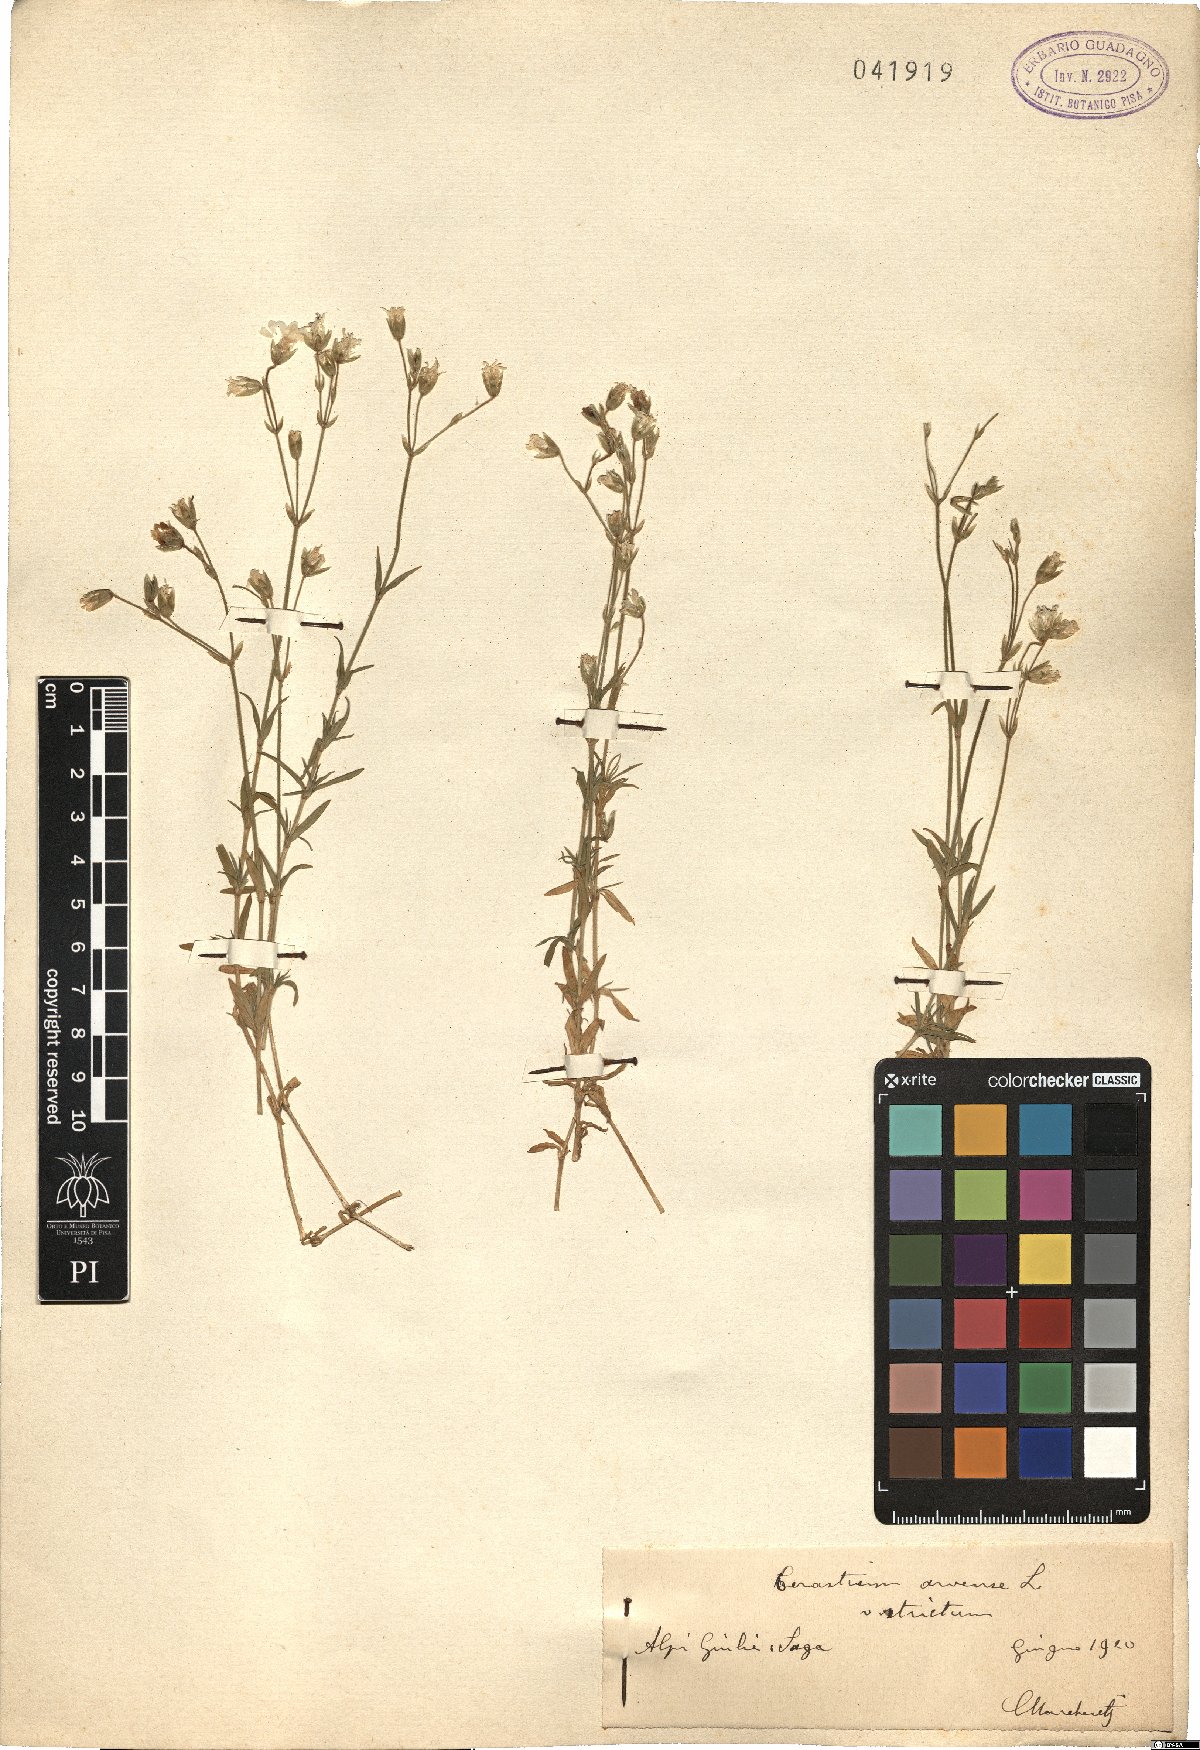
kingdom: Plantae
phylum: Tracheophyta
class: Magnoliopsida
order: Caryophyllales
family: Caryophyllaceae
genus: Cerastium
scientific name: Cerastium elongatum
